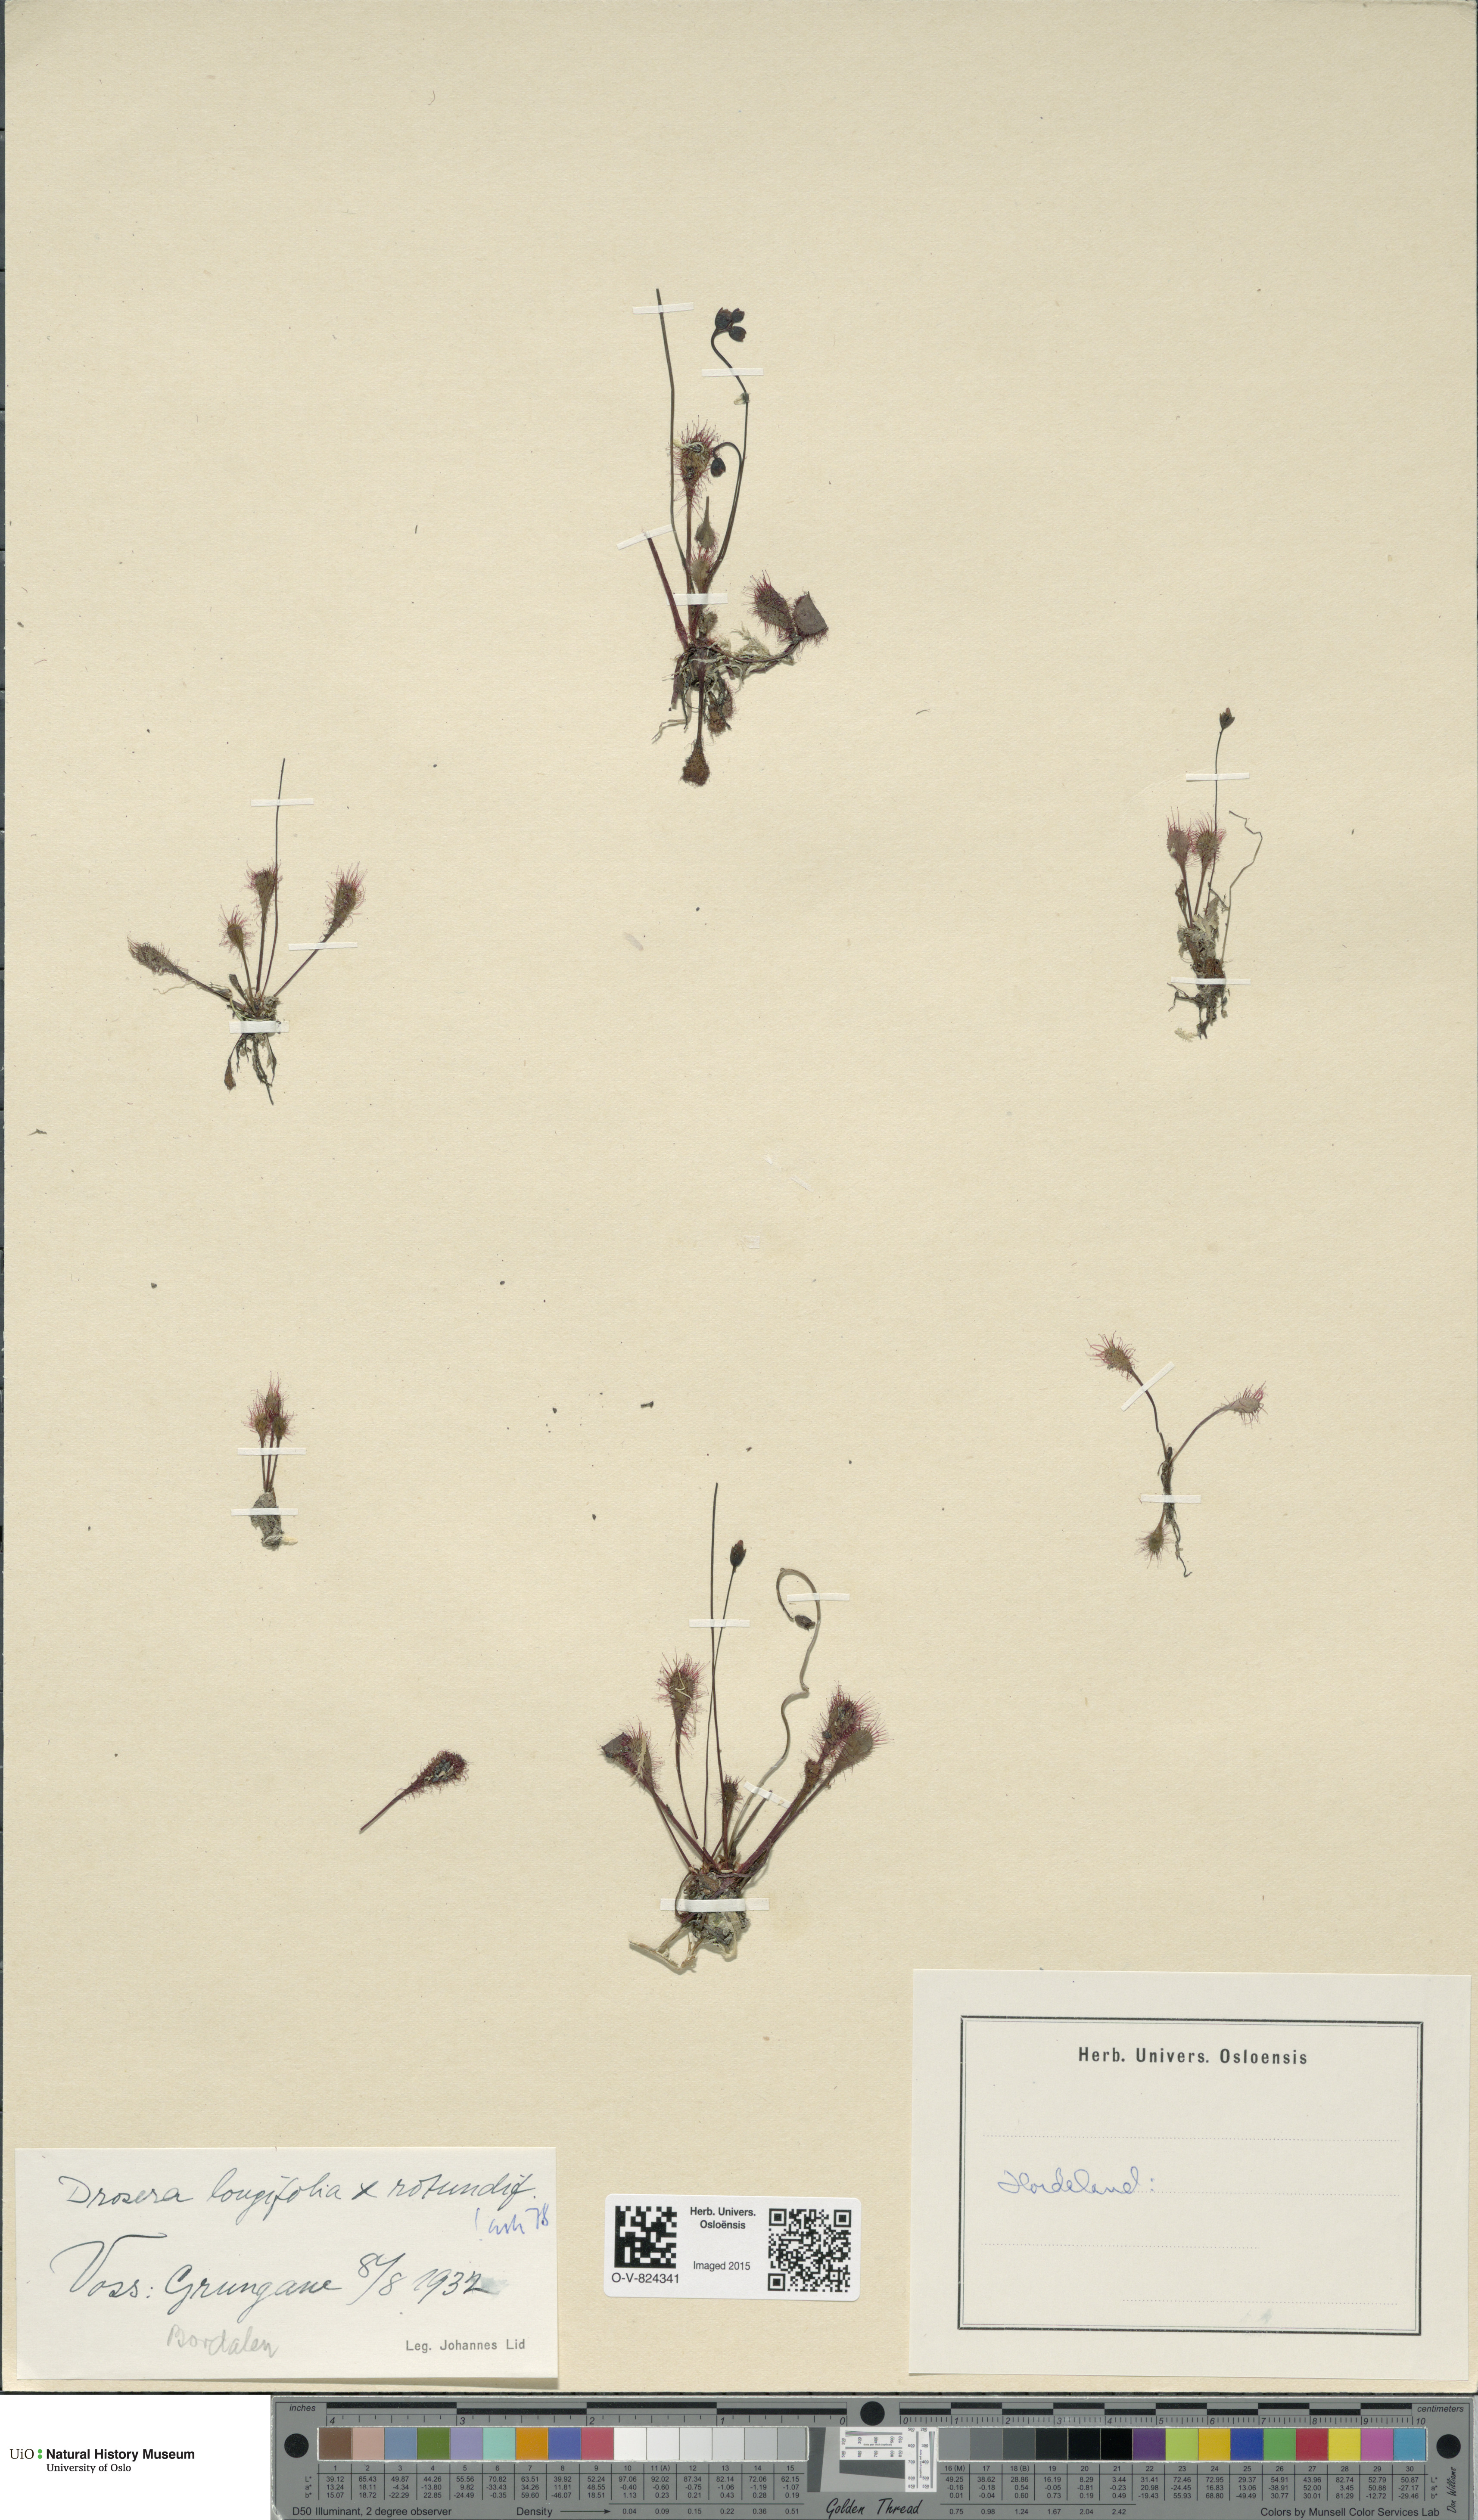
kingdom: Plantae
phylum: Tracheophyta
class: Magnoliopsida
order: Caryophyllales
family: Droseraceae
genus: Drosera
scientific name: Drosera
